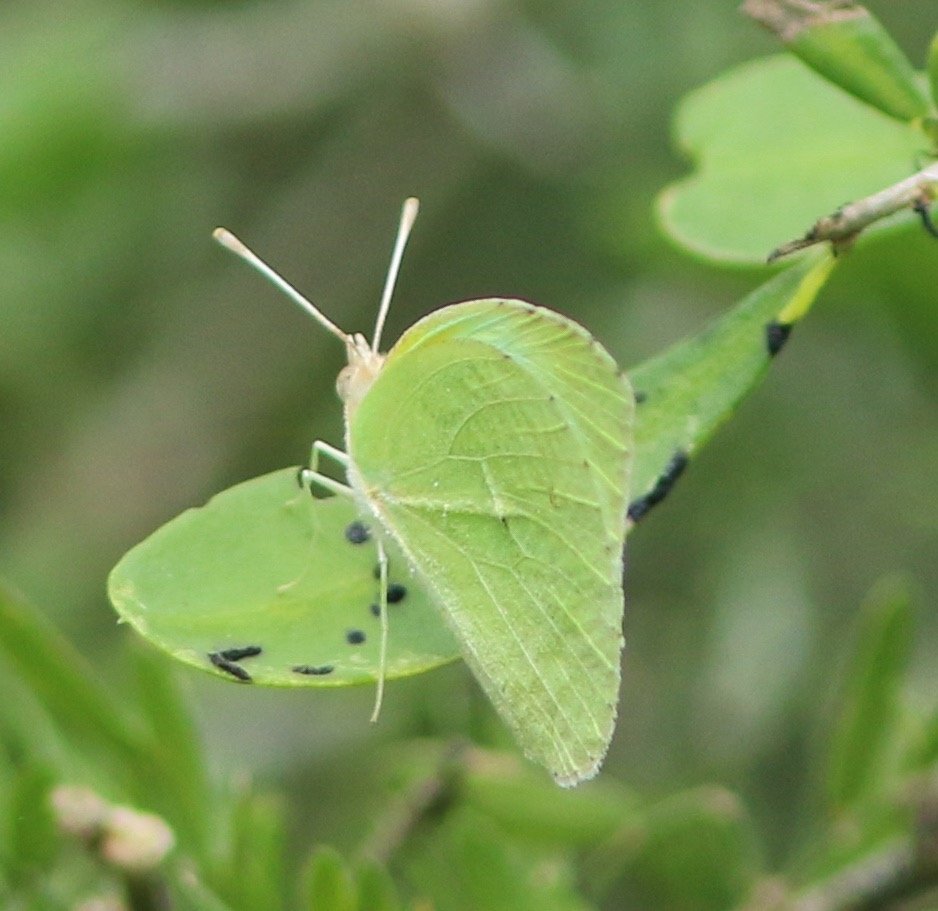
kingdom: Animalia
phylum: Arthropoda
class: Insecta
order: Lepidoptera
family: Pieridae
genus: Kricogonia
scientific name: Kricogonia lyside
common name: Lyside Sulphur
